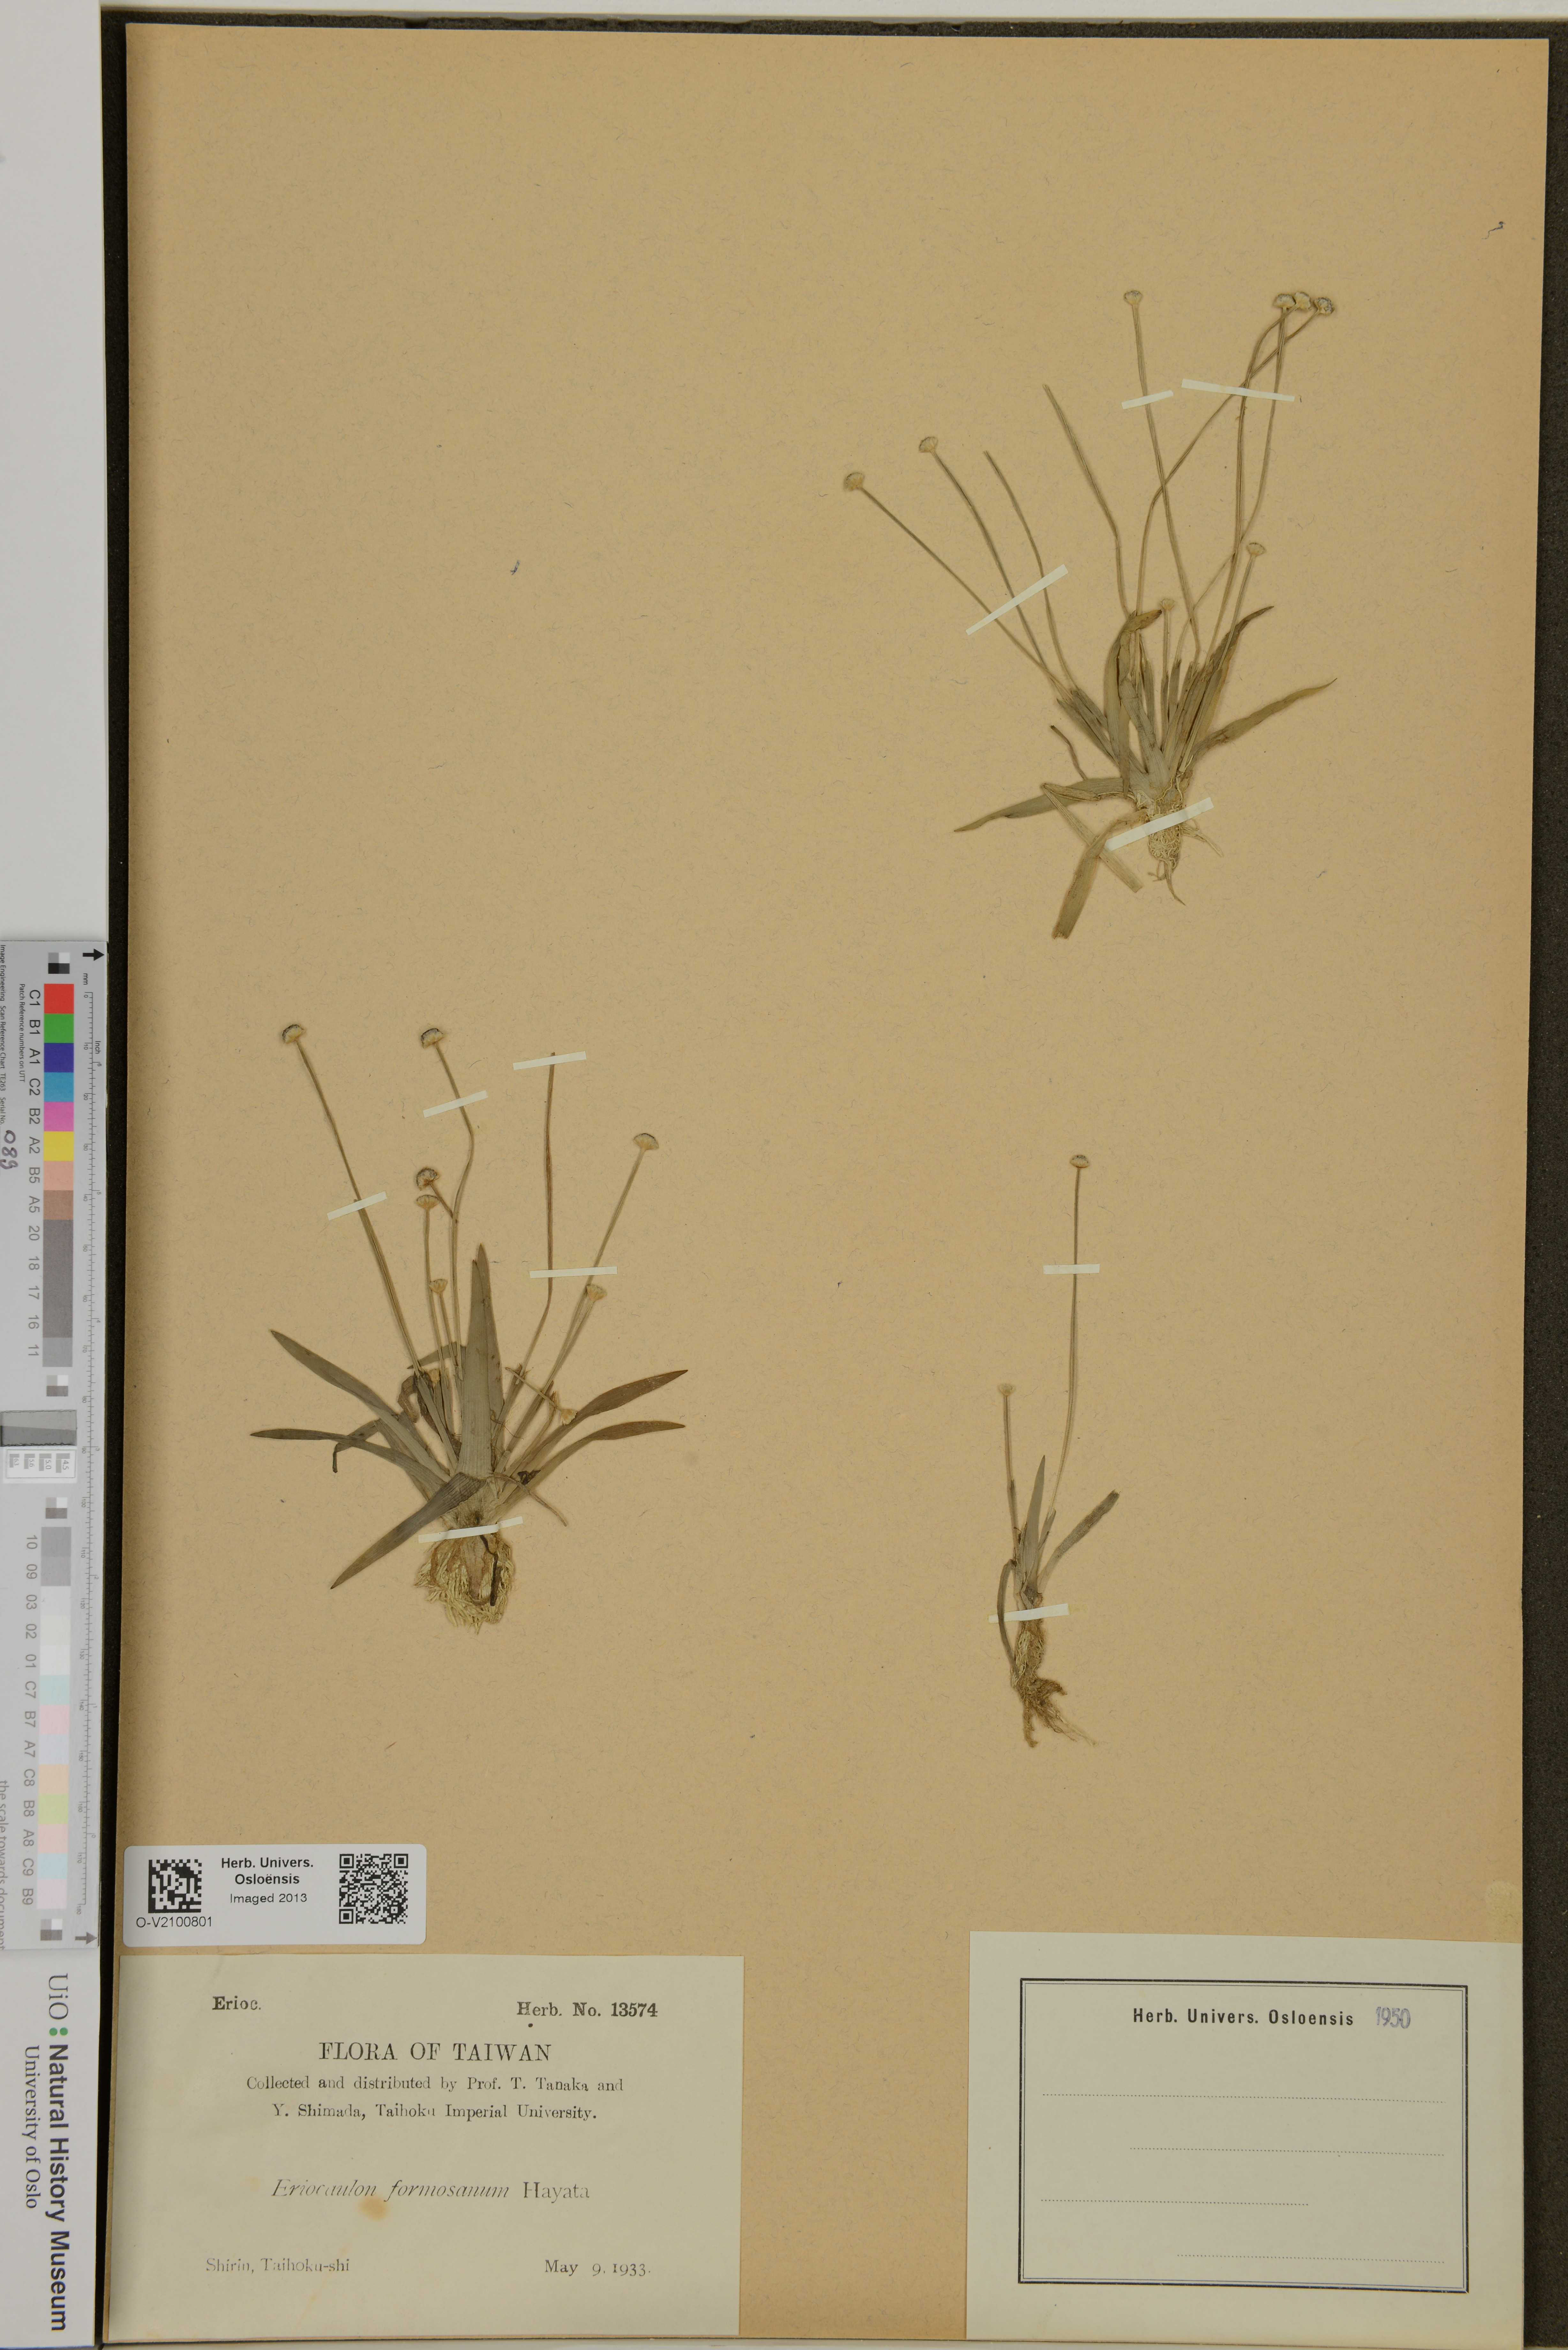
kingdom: Plantae
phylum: Tracheophyta
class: Liliopsida
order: Poales
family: Eriocaulaceae
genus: Eriocaulon
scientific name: Eriocaulon cinereum
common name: Ashy pipewort
